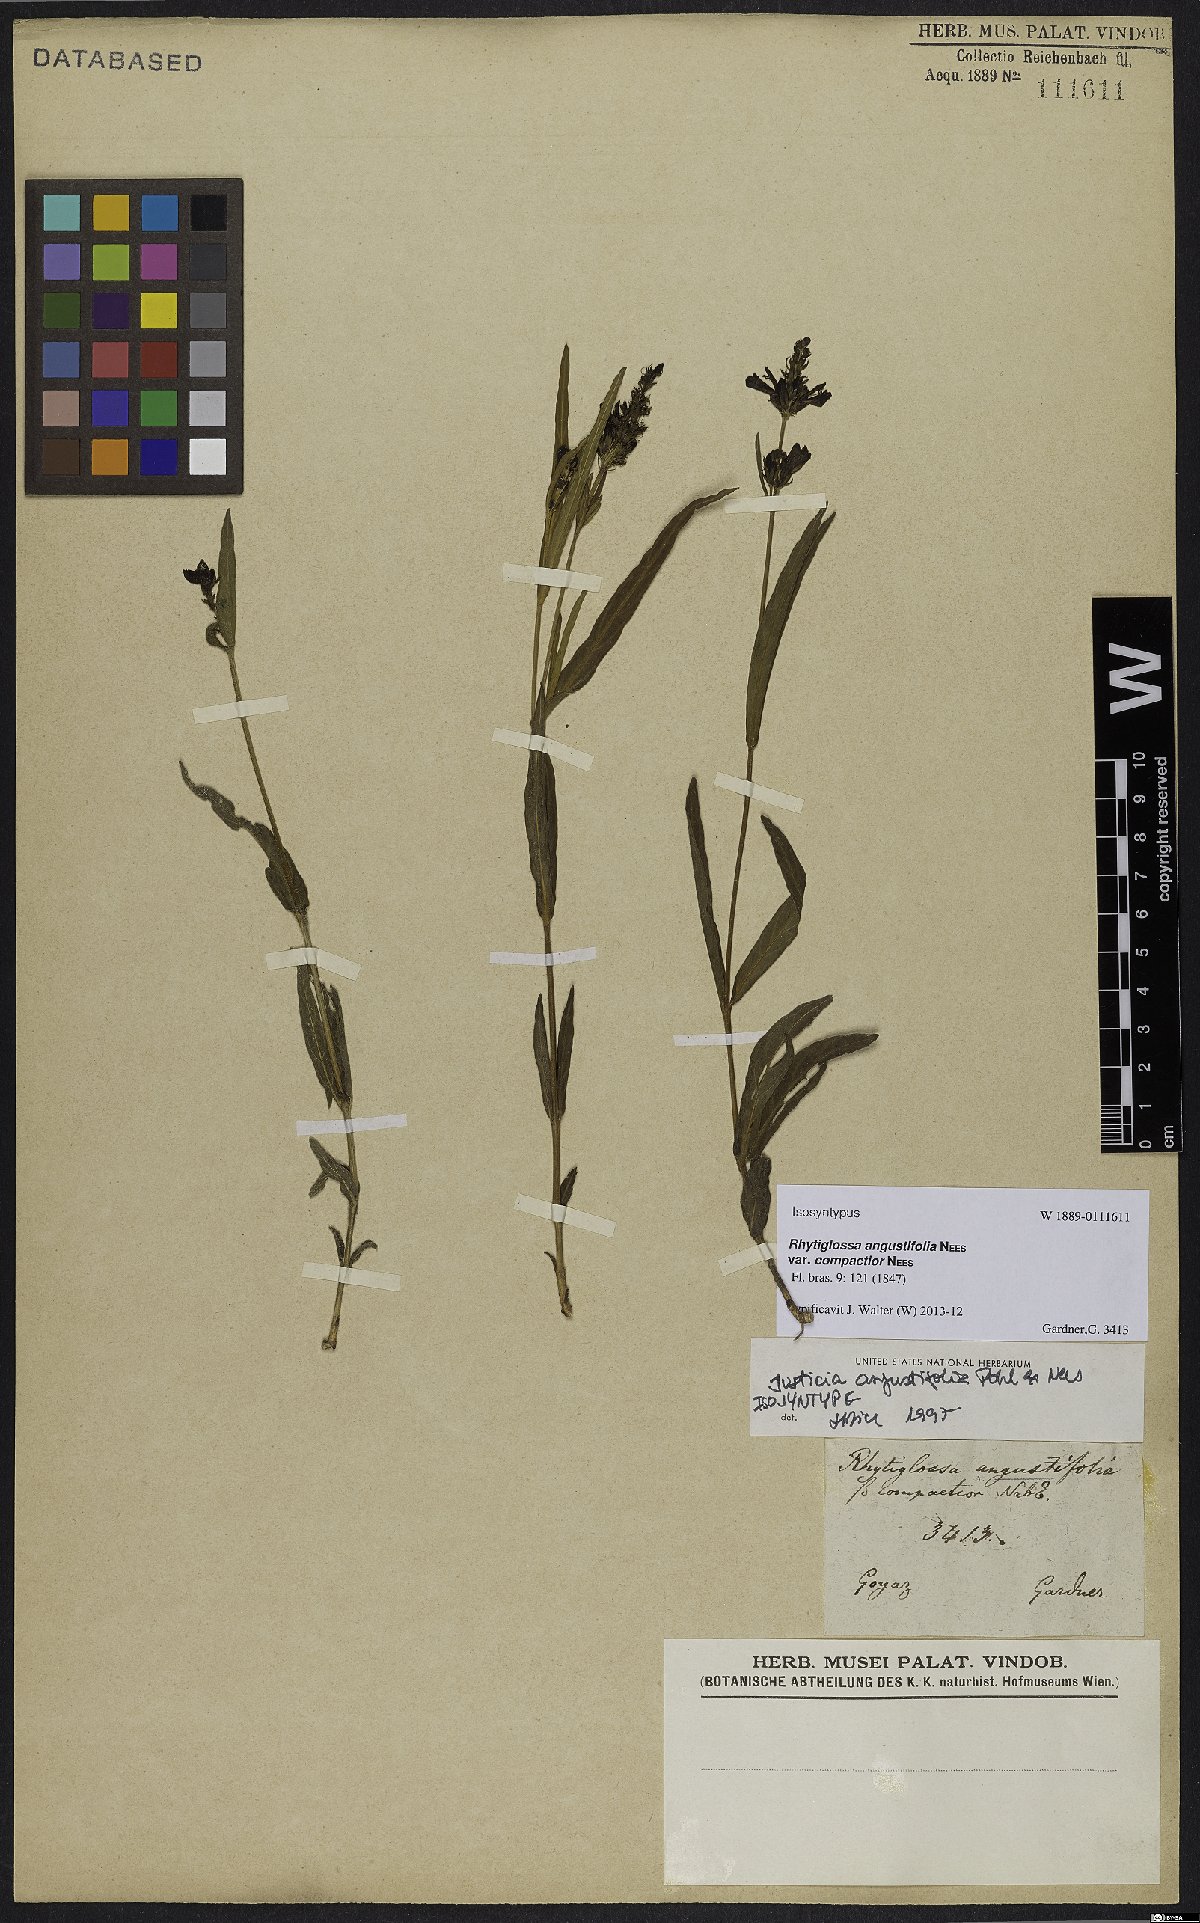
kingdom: Plantae
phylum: Tracheophyta
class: Magnoliopsida
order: Lamiales
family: Acanthaceae
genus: Dianthera
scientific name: Dianthera angustifolia
